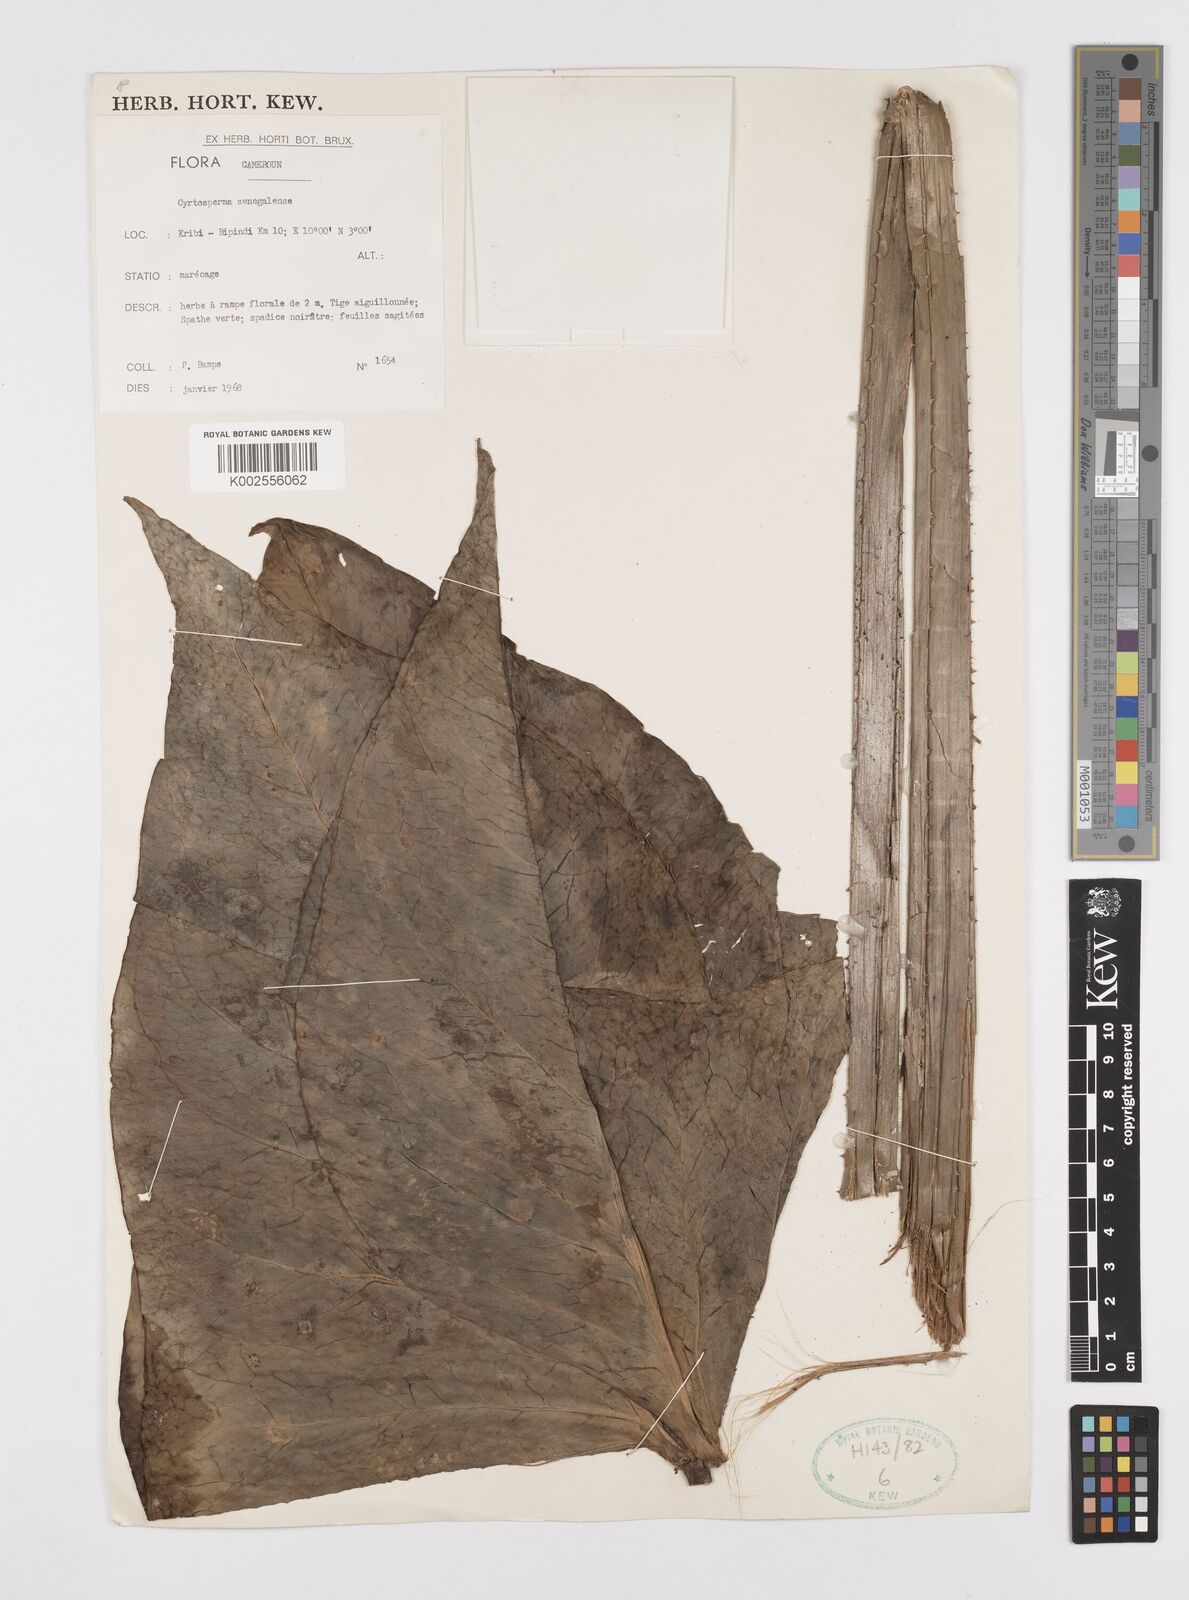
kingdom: Plantae
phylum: Tracheophyta
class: Liliopsida
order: Alismatales
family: Araceae
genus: Lasimorpha
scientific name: Lasimorpha senegalensis
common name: Swamp arum
